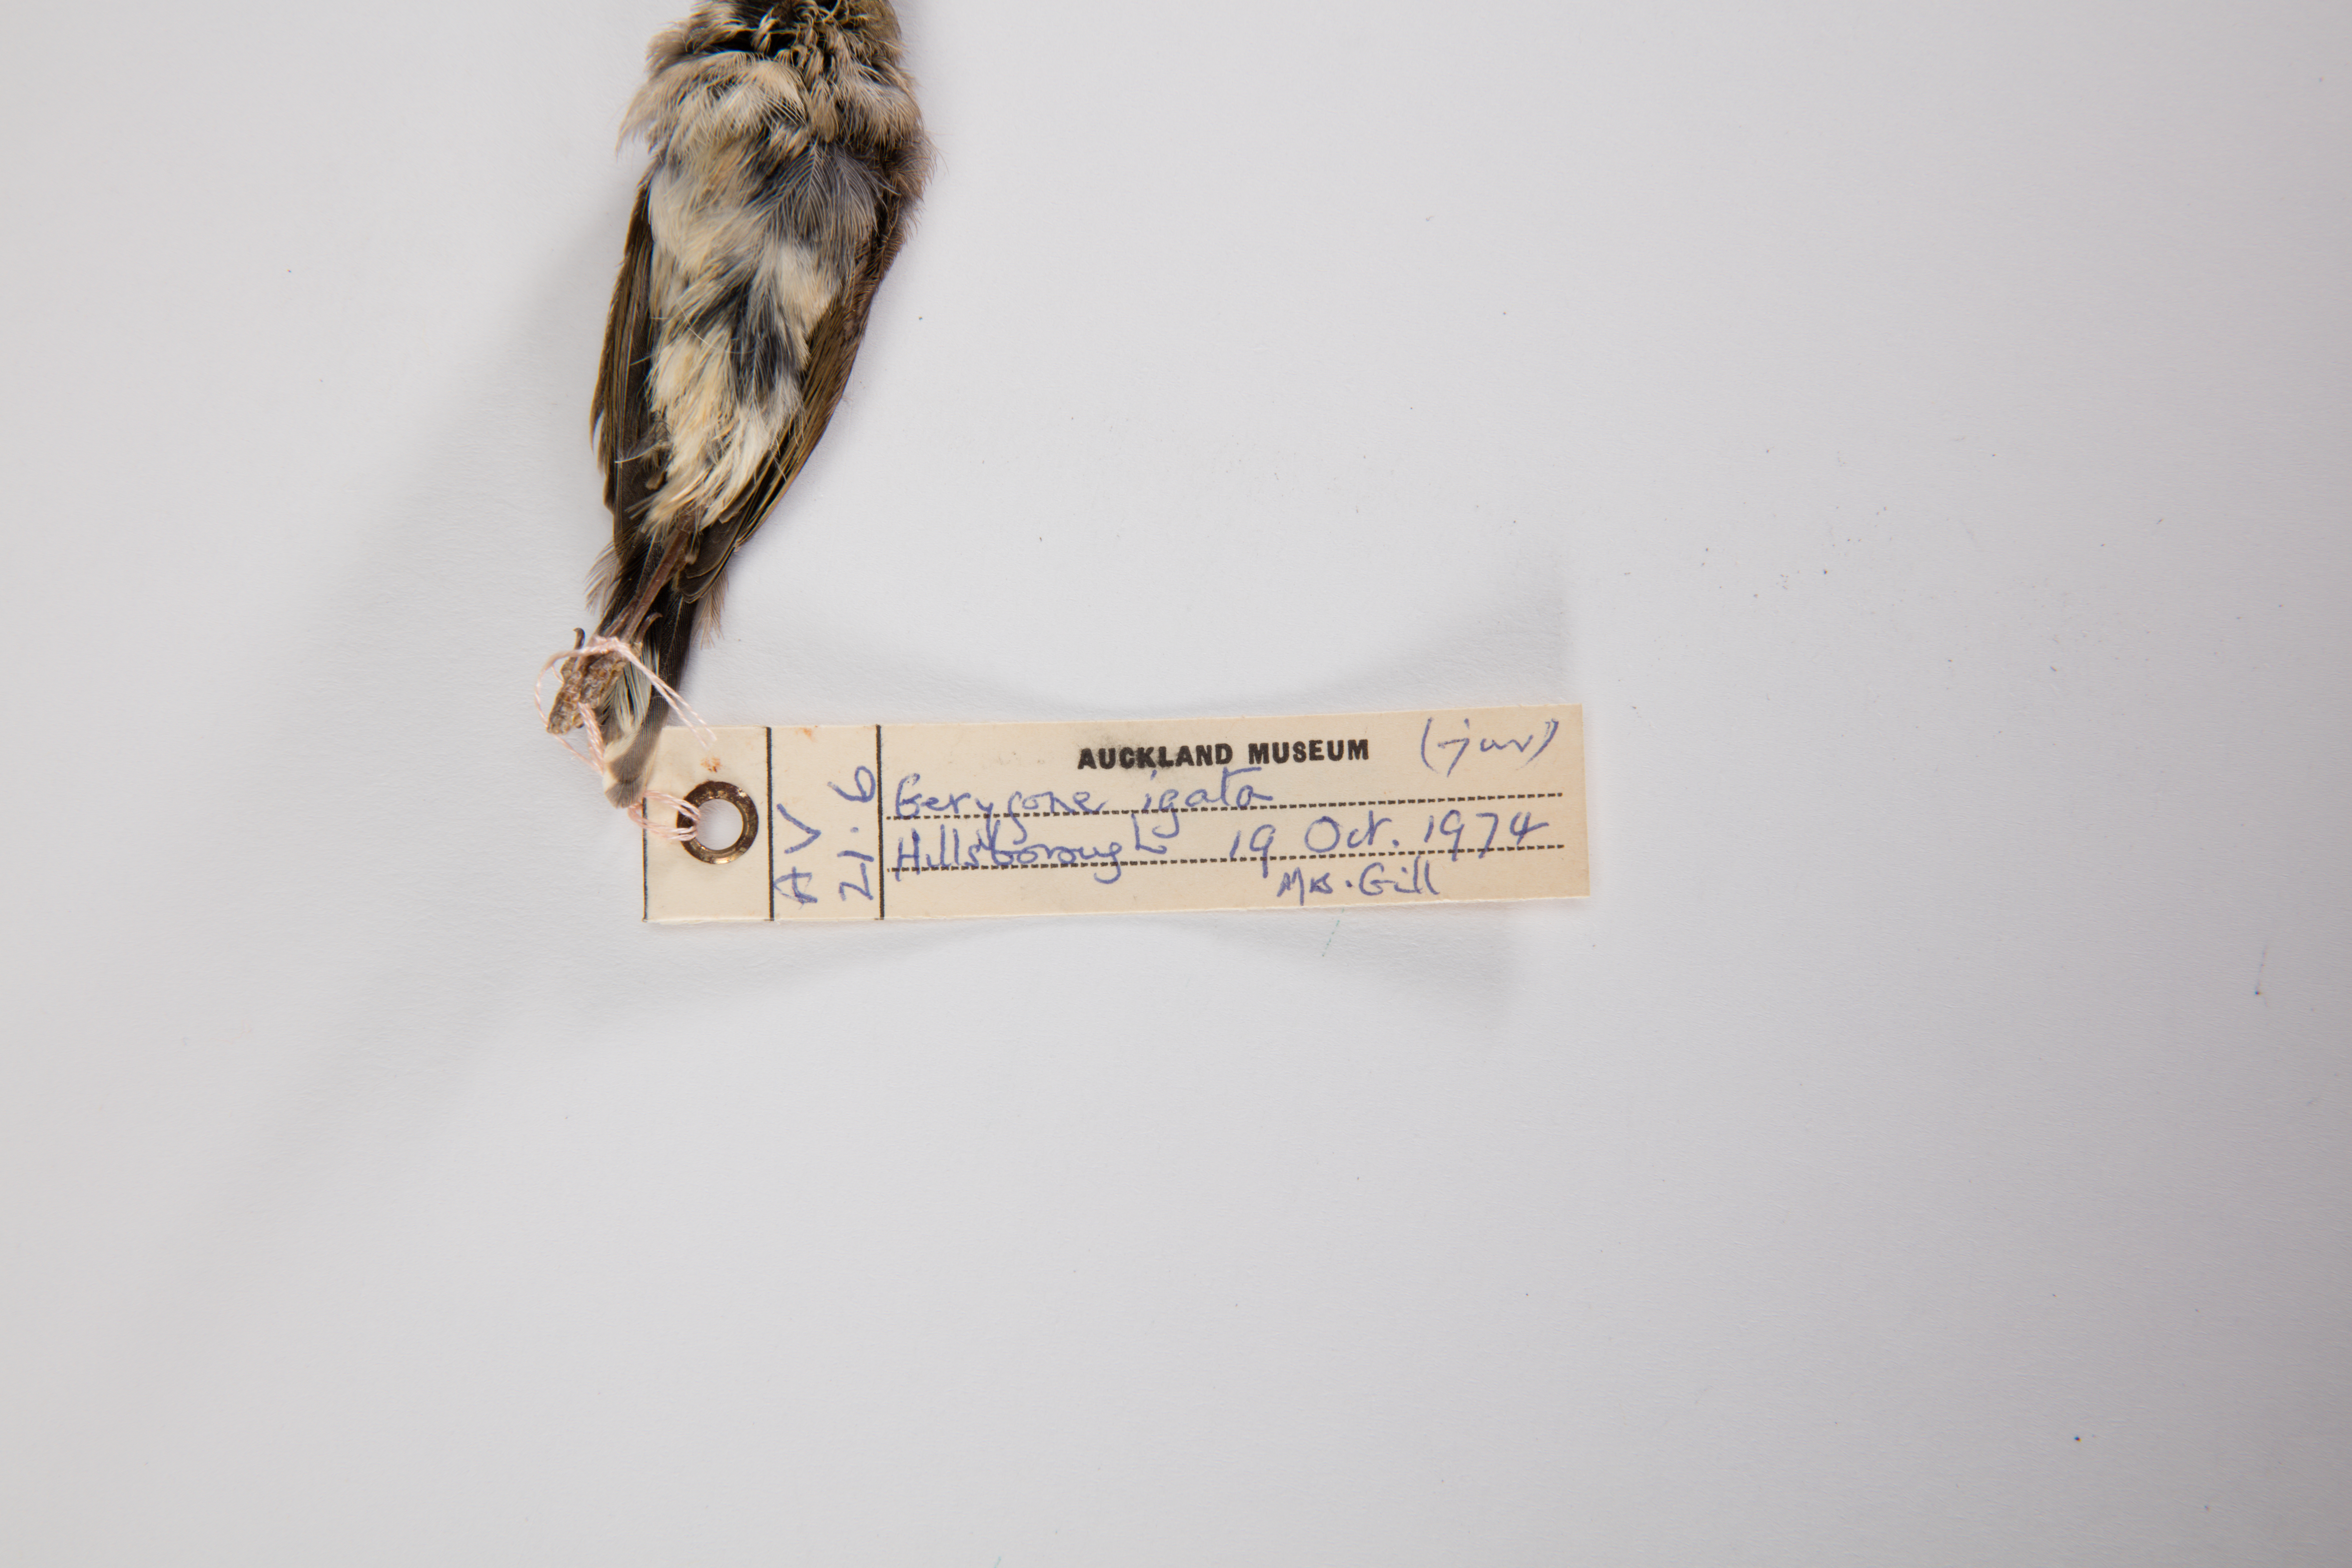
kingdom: Animalia
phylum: Chordata
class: Aves
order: Passeriformes
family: Acanthizidae
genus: Gerygone
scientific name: Gerygone igata
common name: Grey gerygone
